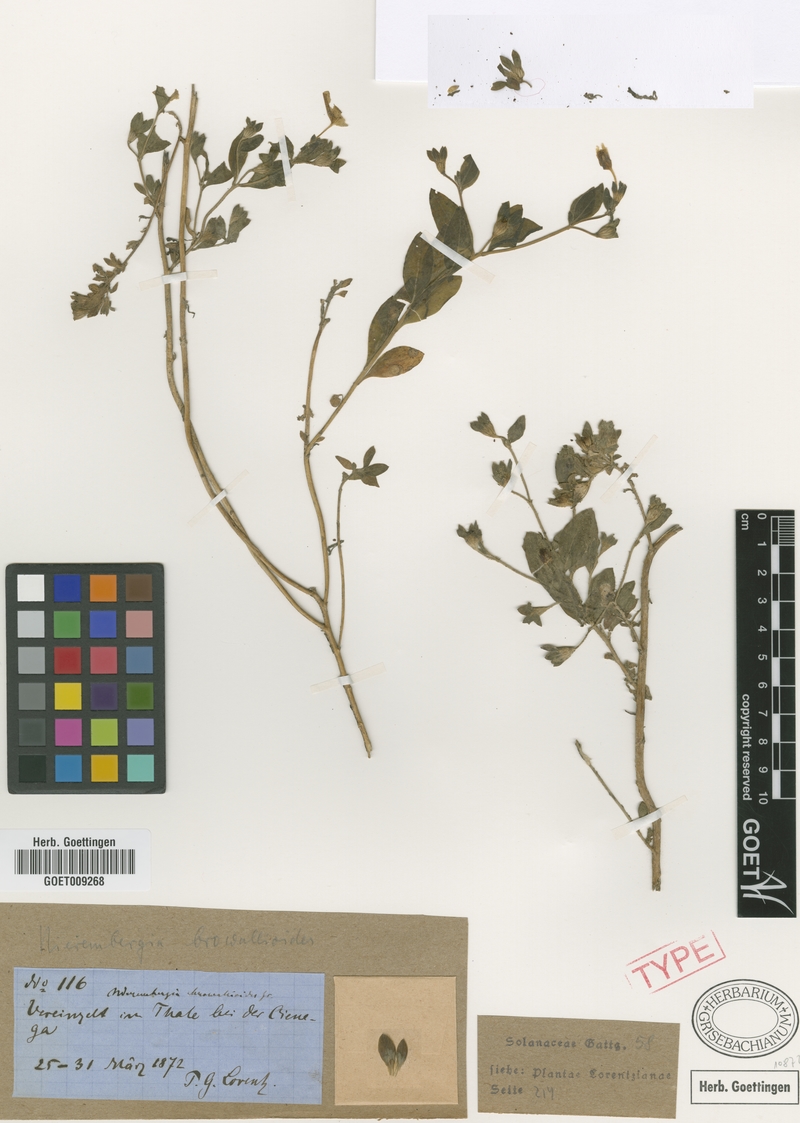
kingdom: Plantae
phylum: Tracheophyta
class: Magnoliopsida
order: Solanales
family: Solanaceae
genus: Nierembergia
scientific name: Nierembergia browallioides
